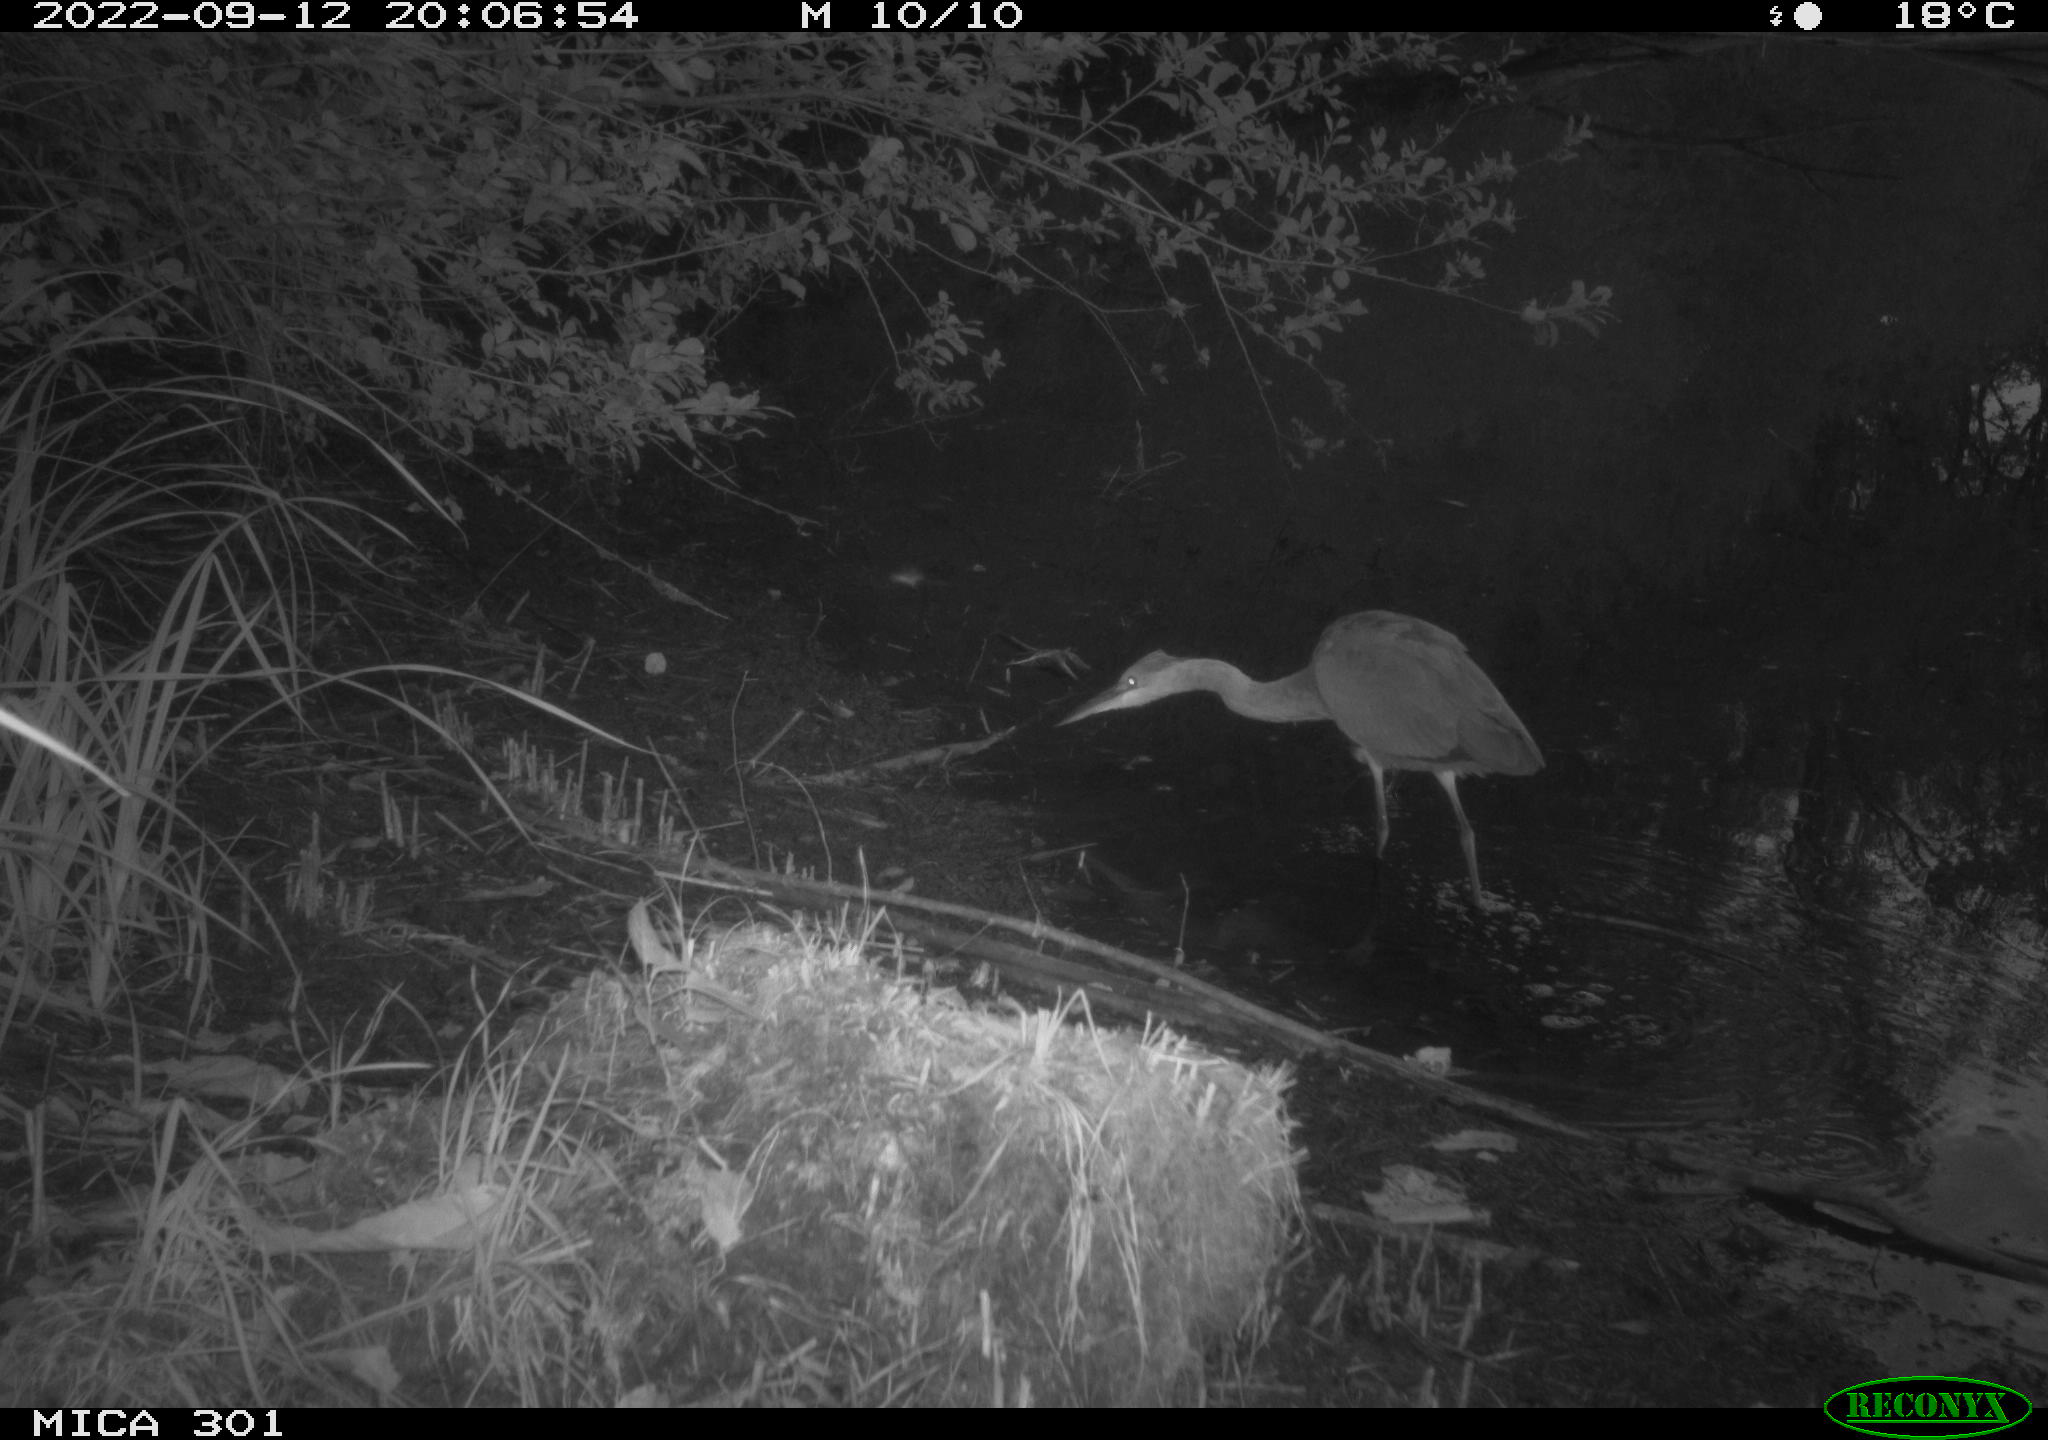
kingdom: Animalia
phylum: Chordata
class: Aves
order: Pelecaniformes
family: Ardeidae
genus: Ardea
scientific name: Ardea cinerea
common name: Grey heron
